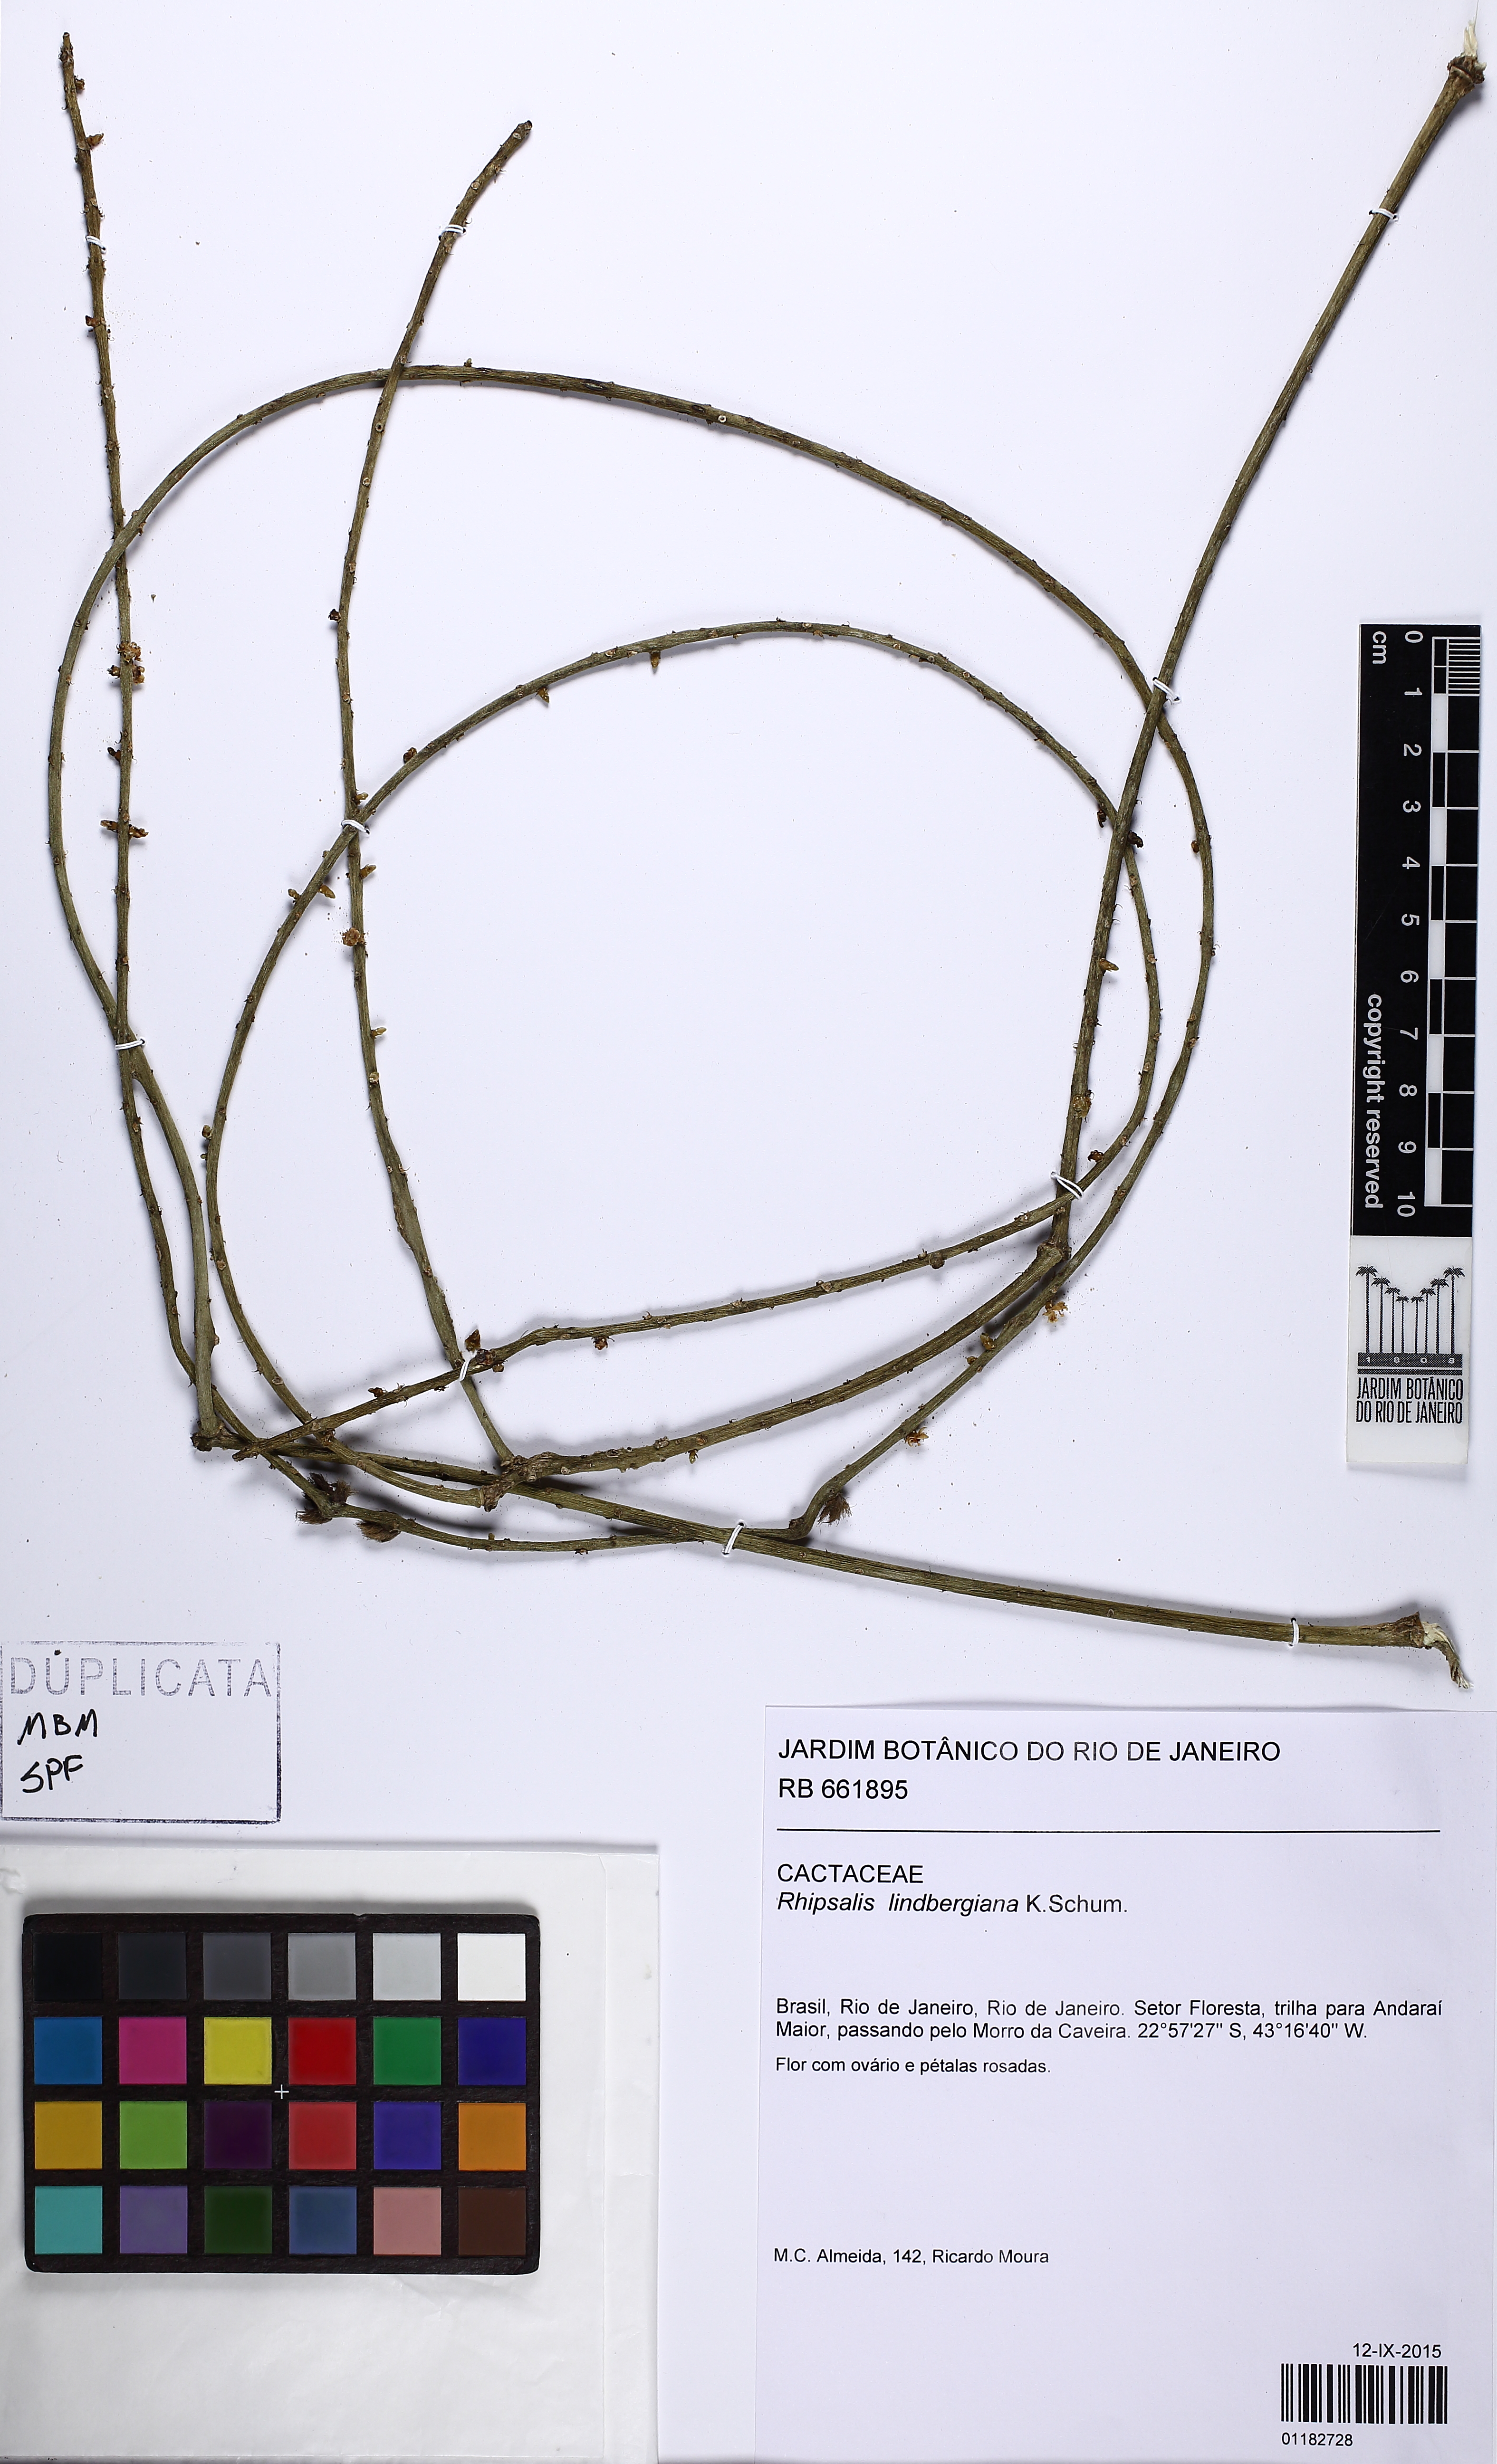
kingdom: Plantae
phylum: Tracheophyta
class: Magnoliopsida
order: Caryophyllales
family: Cactaceae
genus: Rhipsalis
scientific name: Rhipsalis lindbergiana
